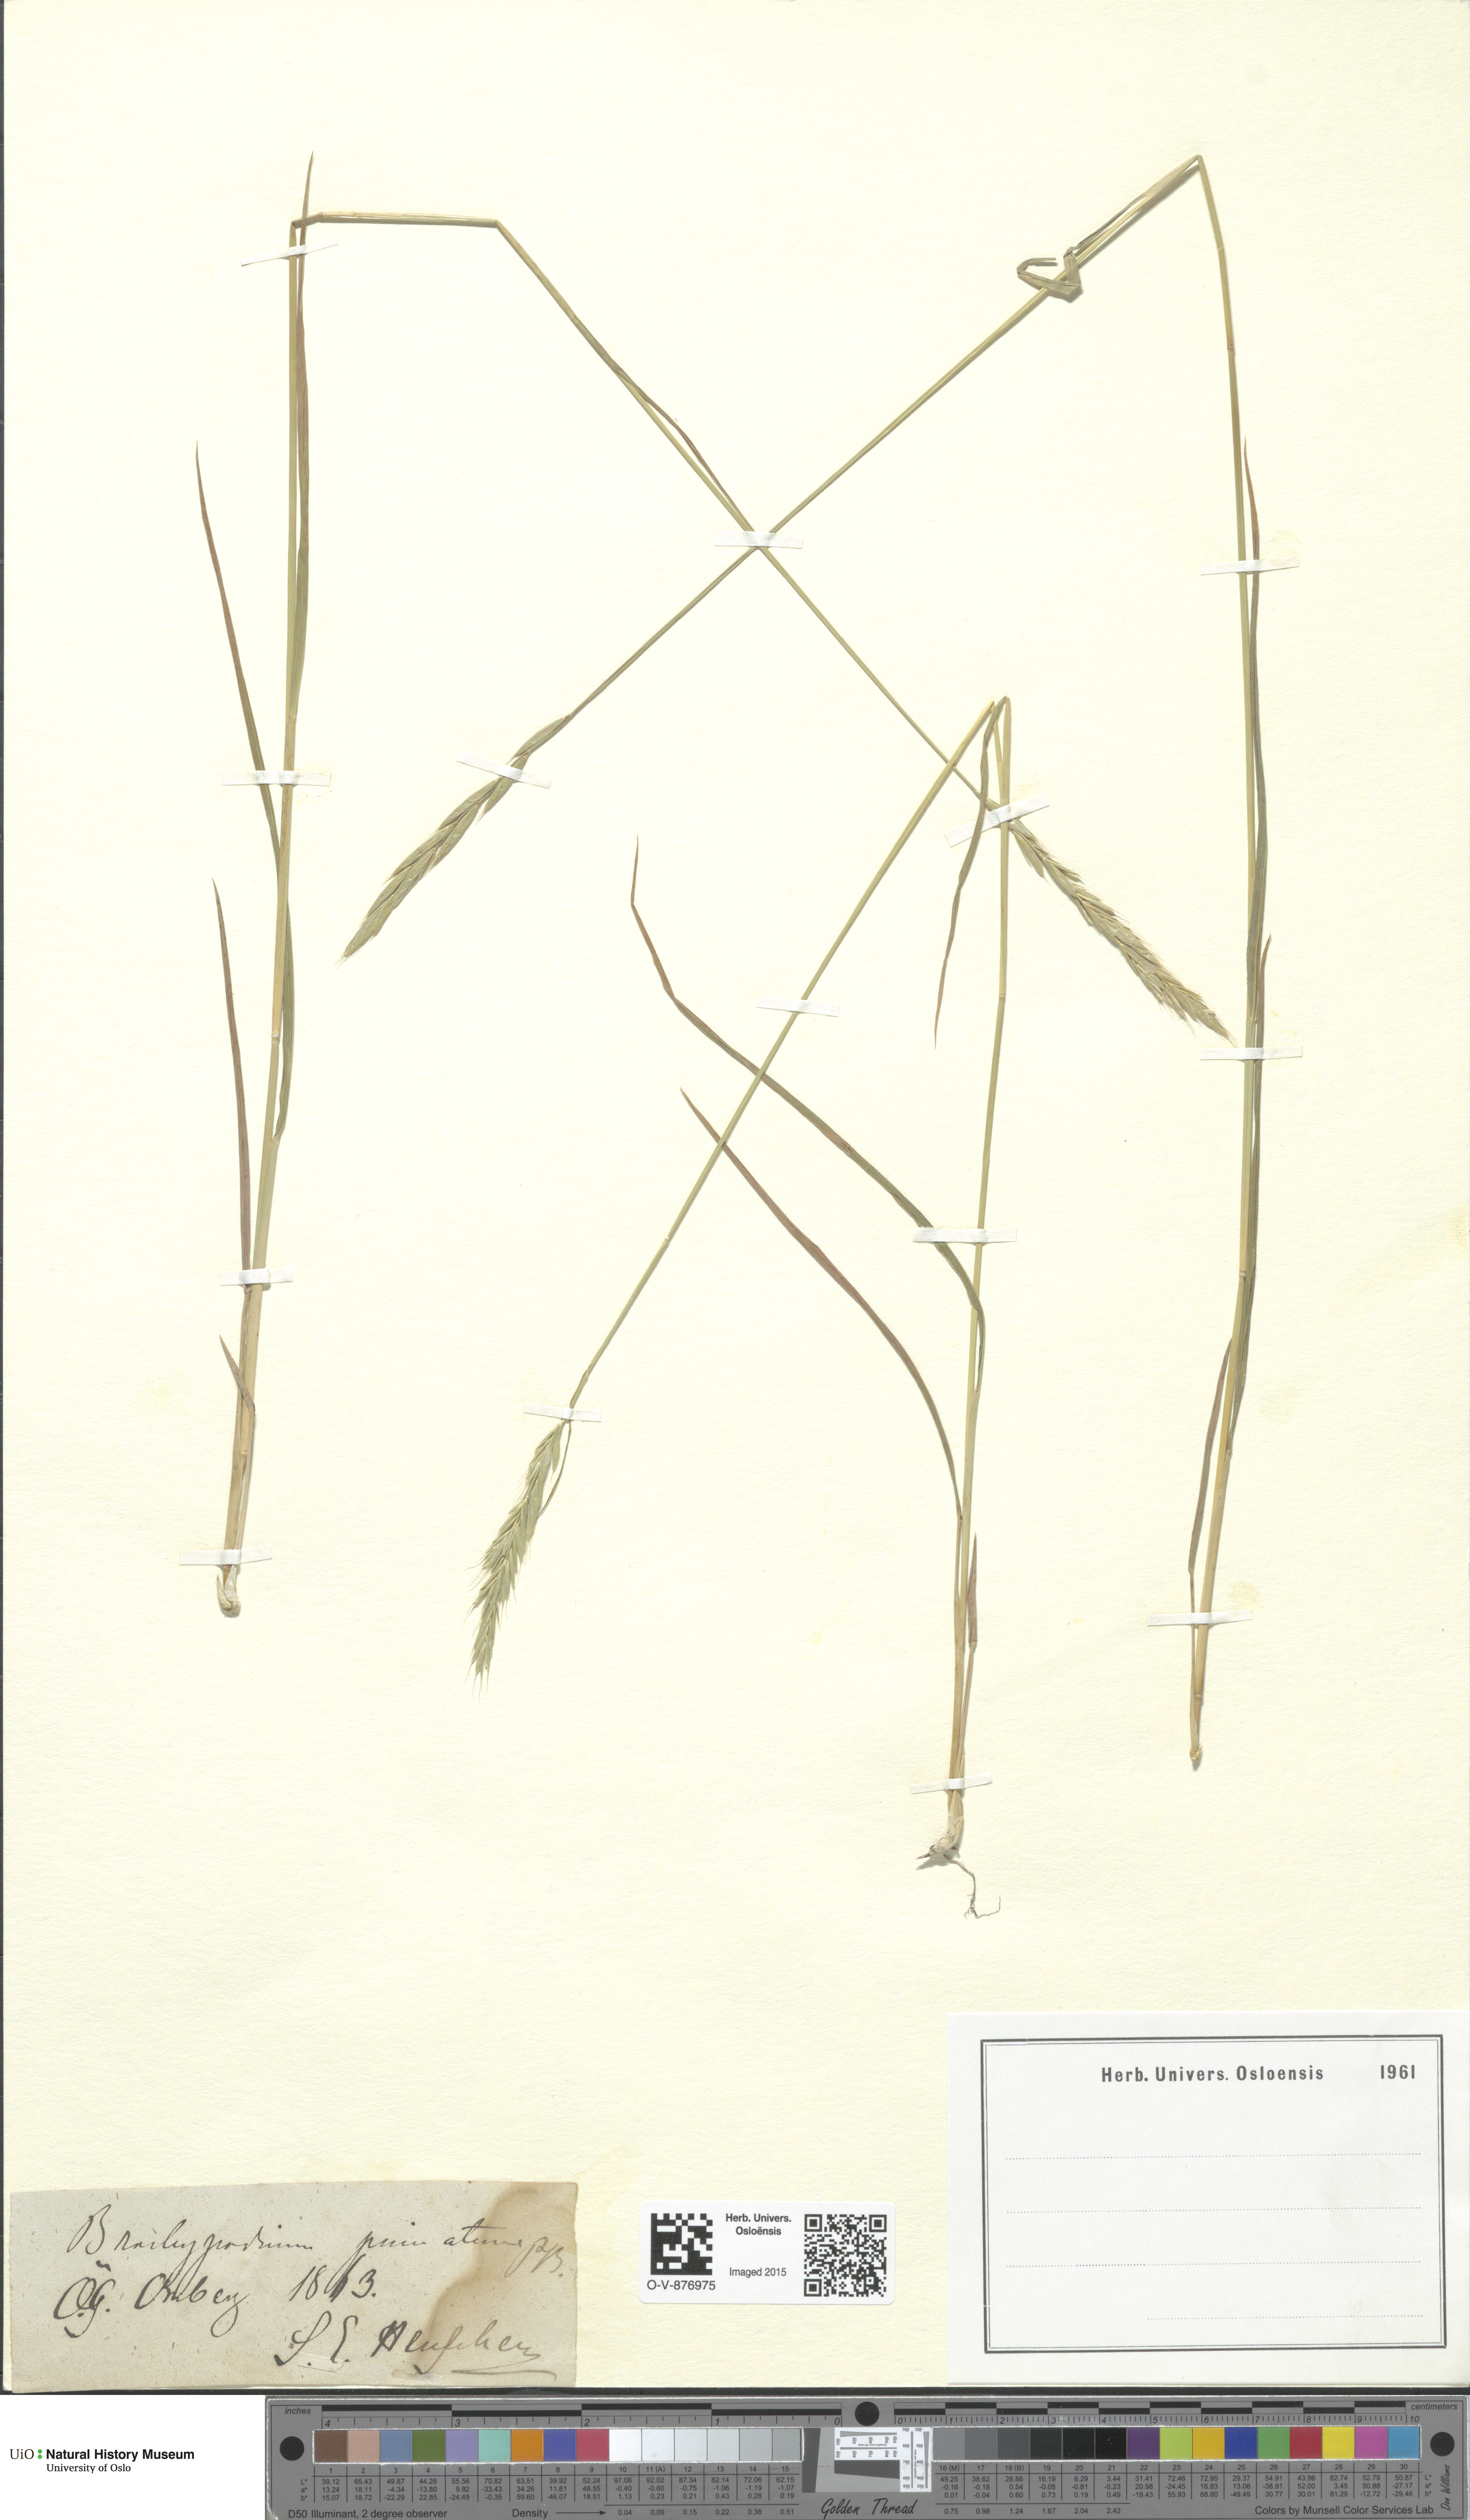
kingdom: Plantae
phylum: Tracheophyta
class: Liliopsida
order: Poales
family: Poaceae
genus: Brachypodium
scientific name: Brachypodium pinnatum
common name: Tor grass
